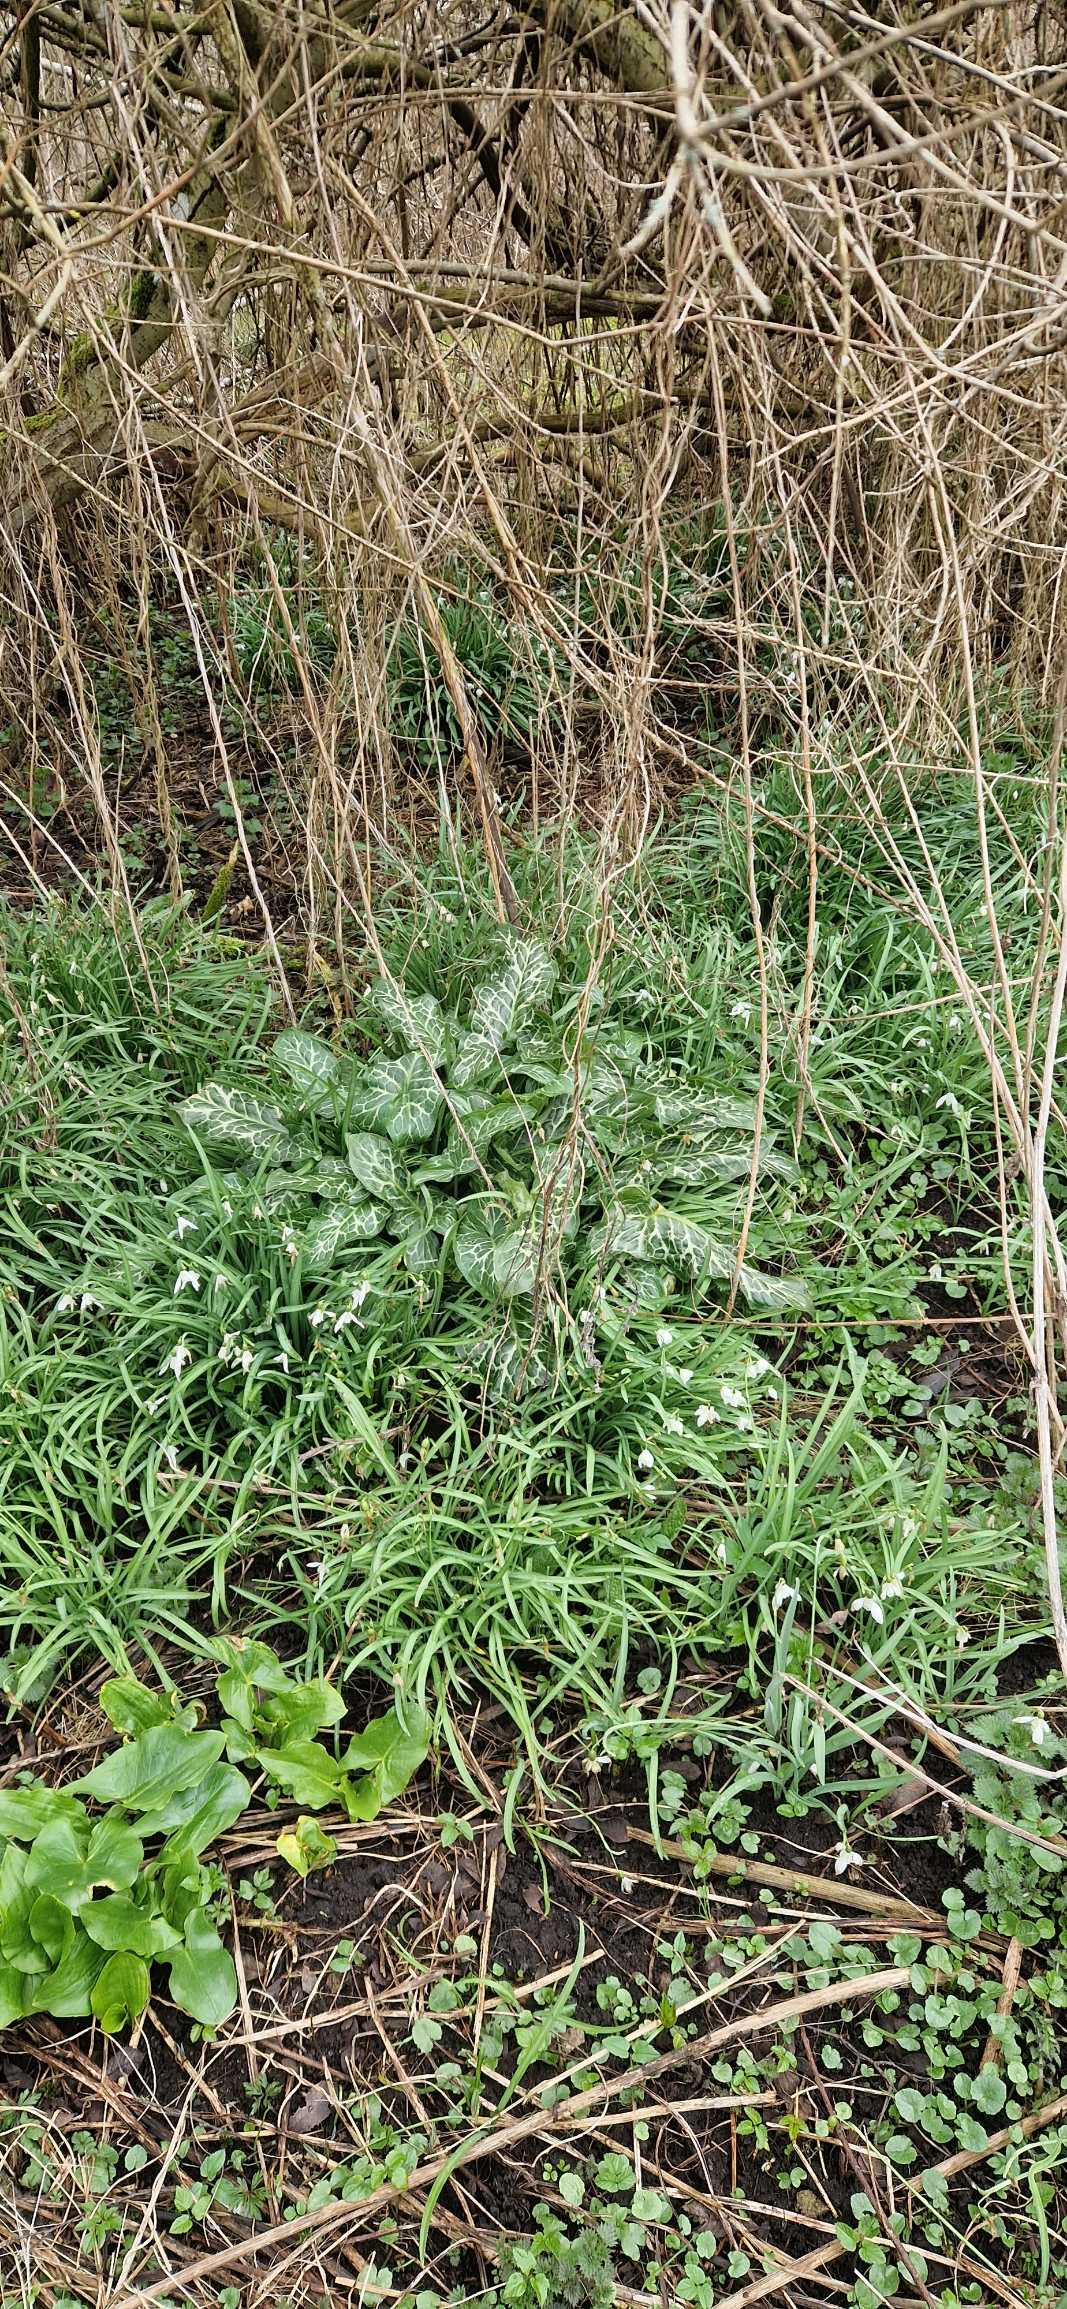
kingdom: Plantae
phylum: Tracheophyta
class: Liliopsida
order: Alismatales
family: Araceae
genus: Arum
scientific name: Arum italicum
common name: Italiensk arum
